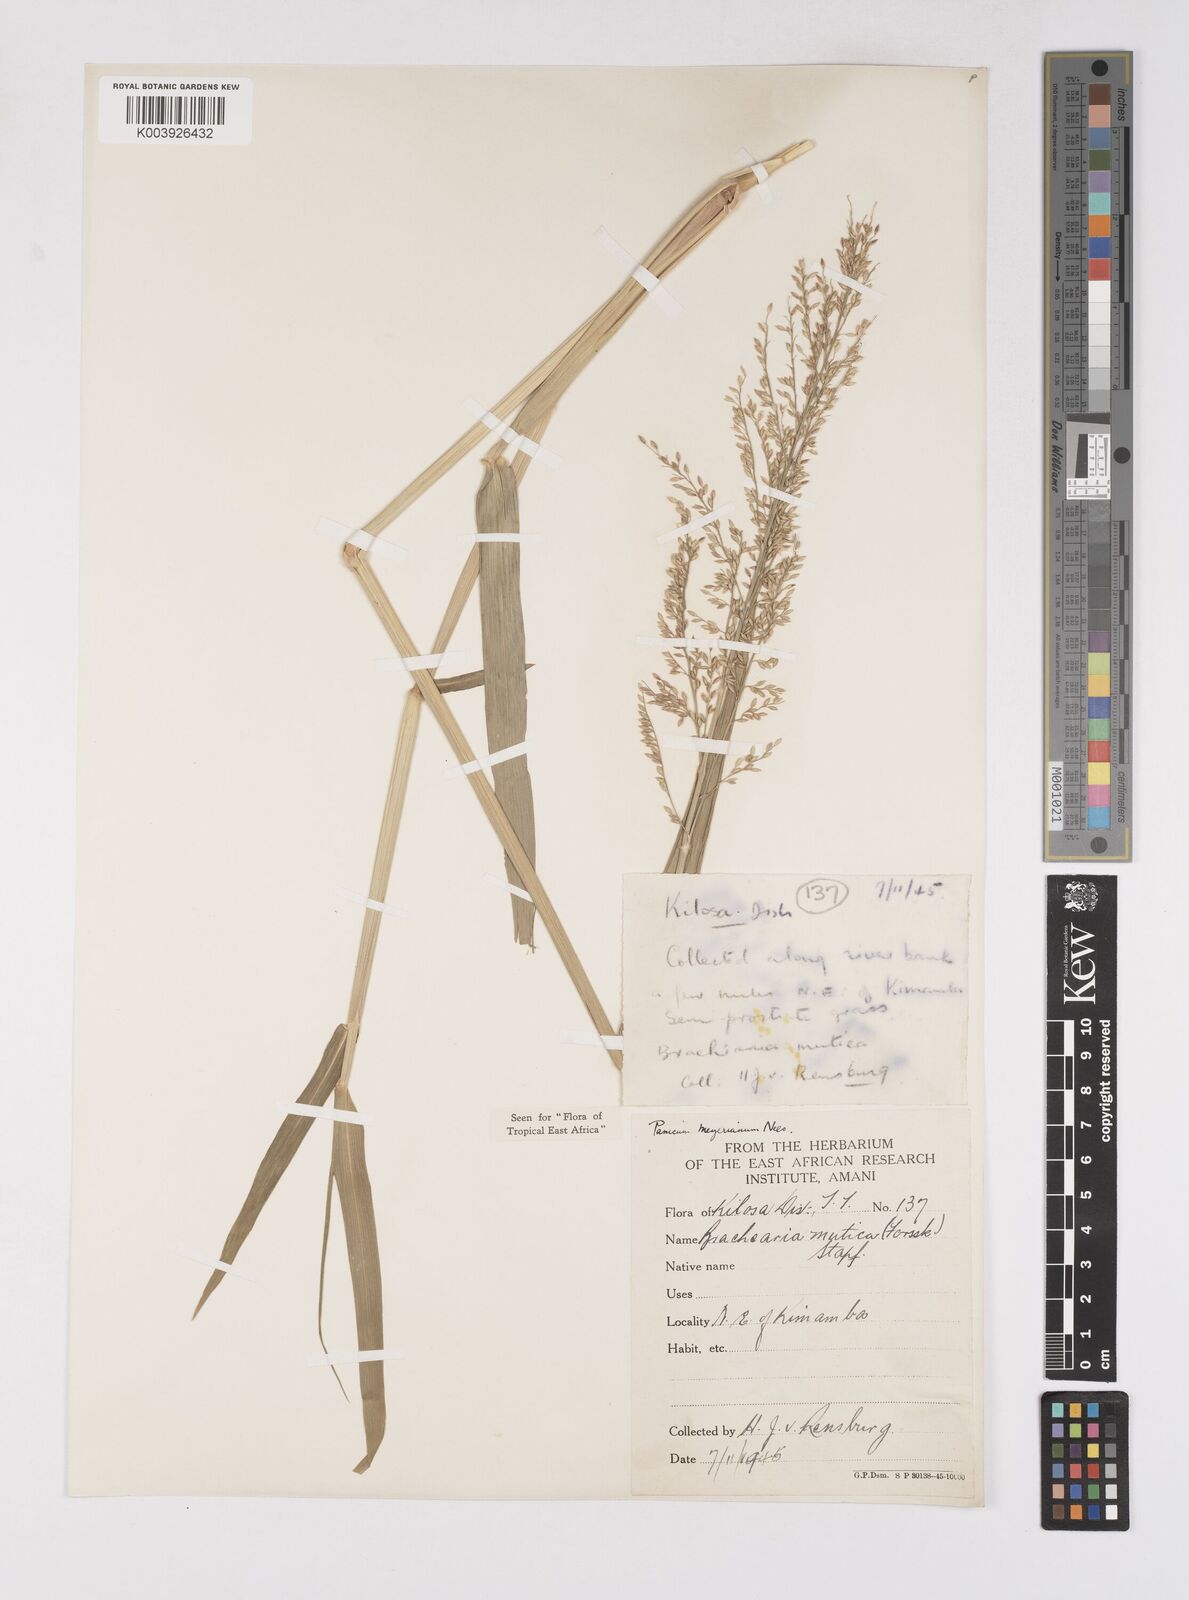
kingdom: Plantae
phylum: Tracheophyta
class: Liliopsida
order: Poales
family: Poaceae
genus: Eriochloa
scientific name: Eriochloa meyeriana
